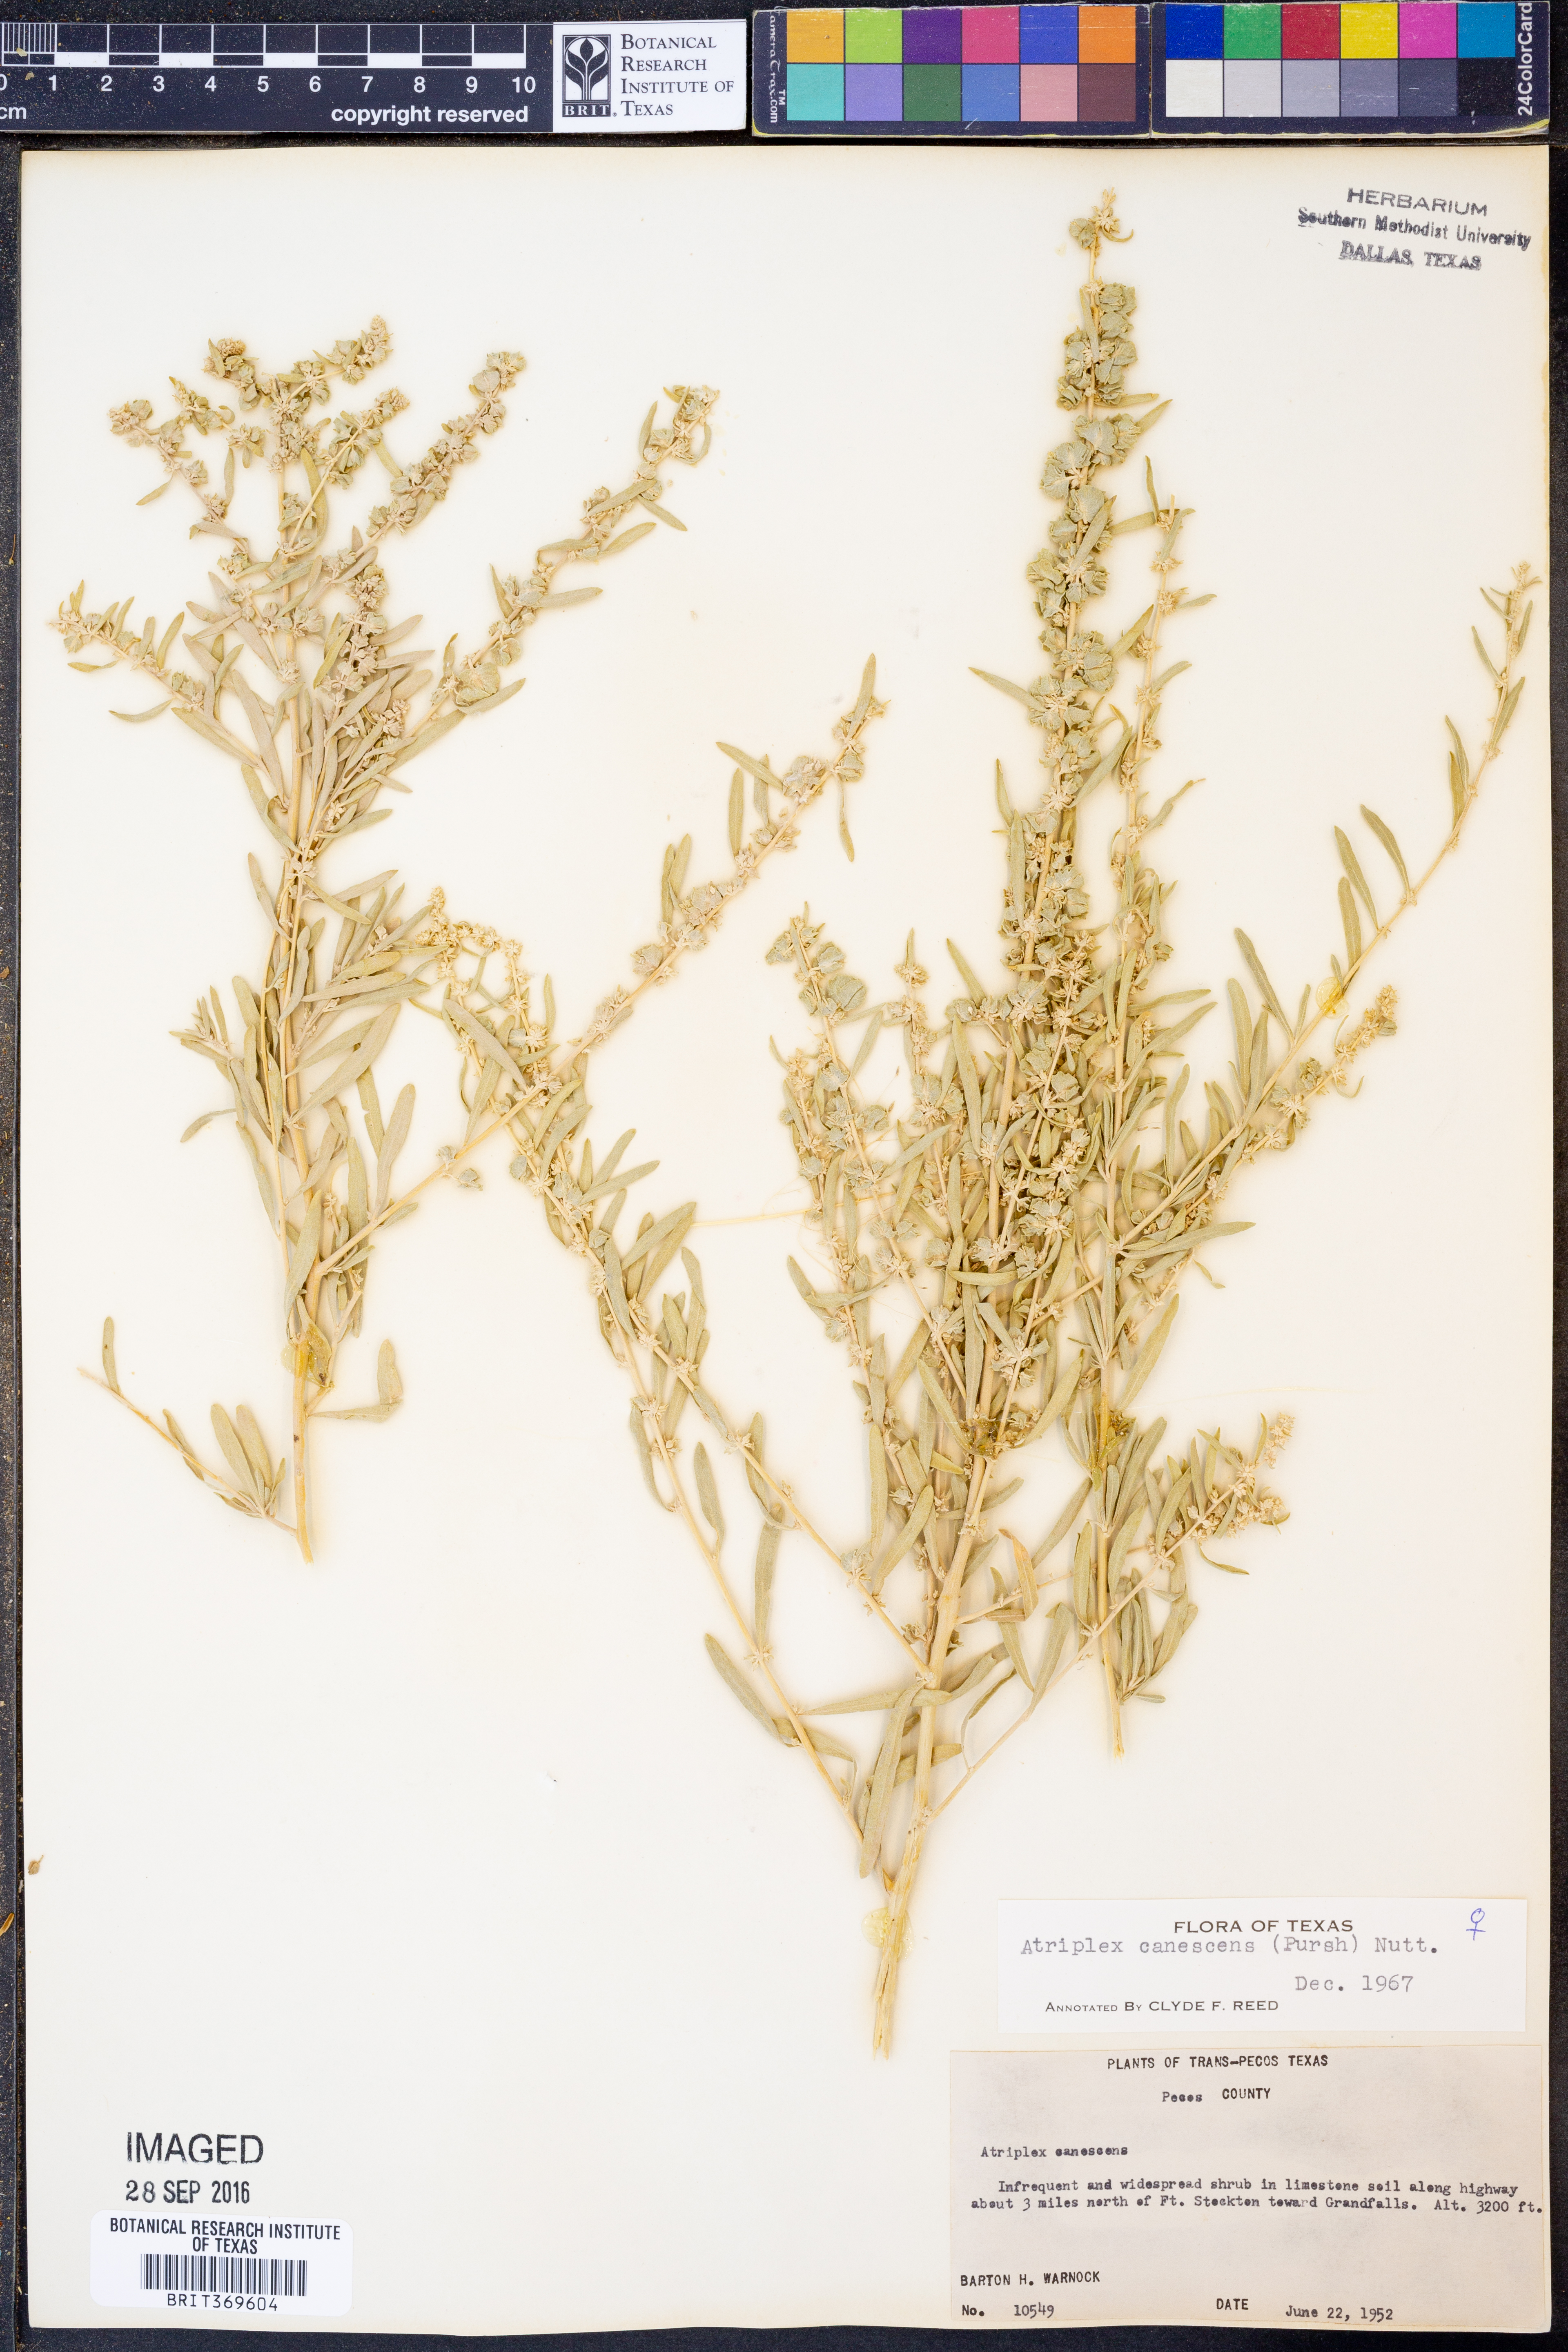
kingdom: Plantae
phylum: Tracheophyta
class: Magnoliopsida
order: Caryophyllales
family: Amaranthaceae
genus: Atriplex
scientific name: Atriplex canescens
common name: Four-wing saltbush
